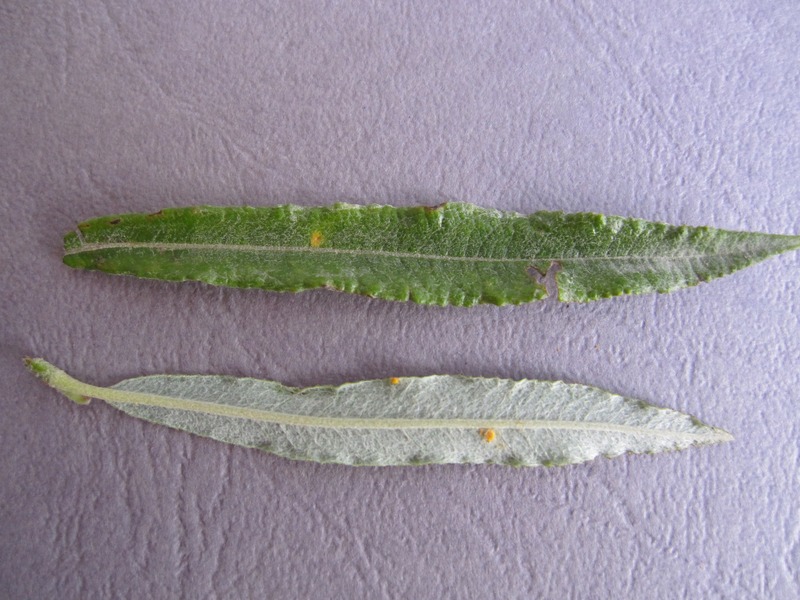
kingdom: Fungi
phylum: Basidiomycota
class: Pucciniomycetes
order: Pucciniales
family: Melampsoraceae
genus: Melampsora
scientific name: Melampsora epitea
